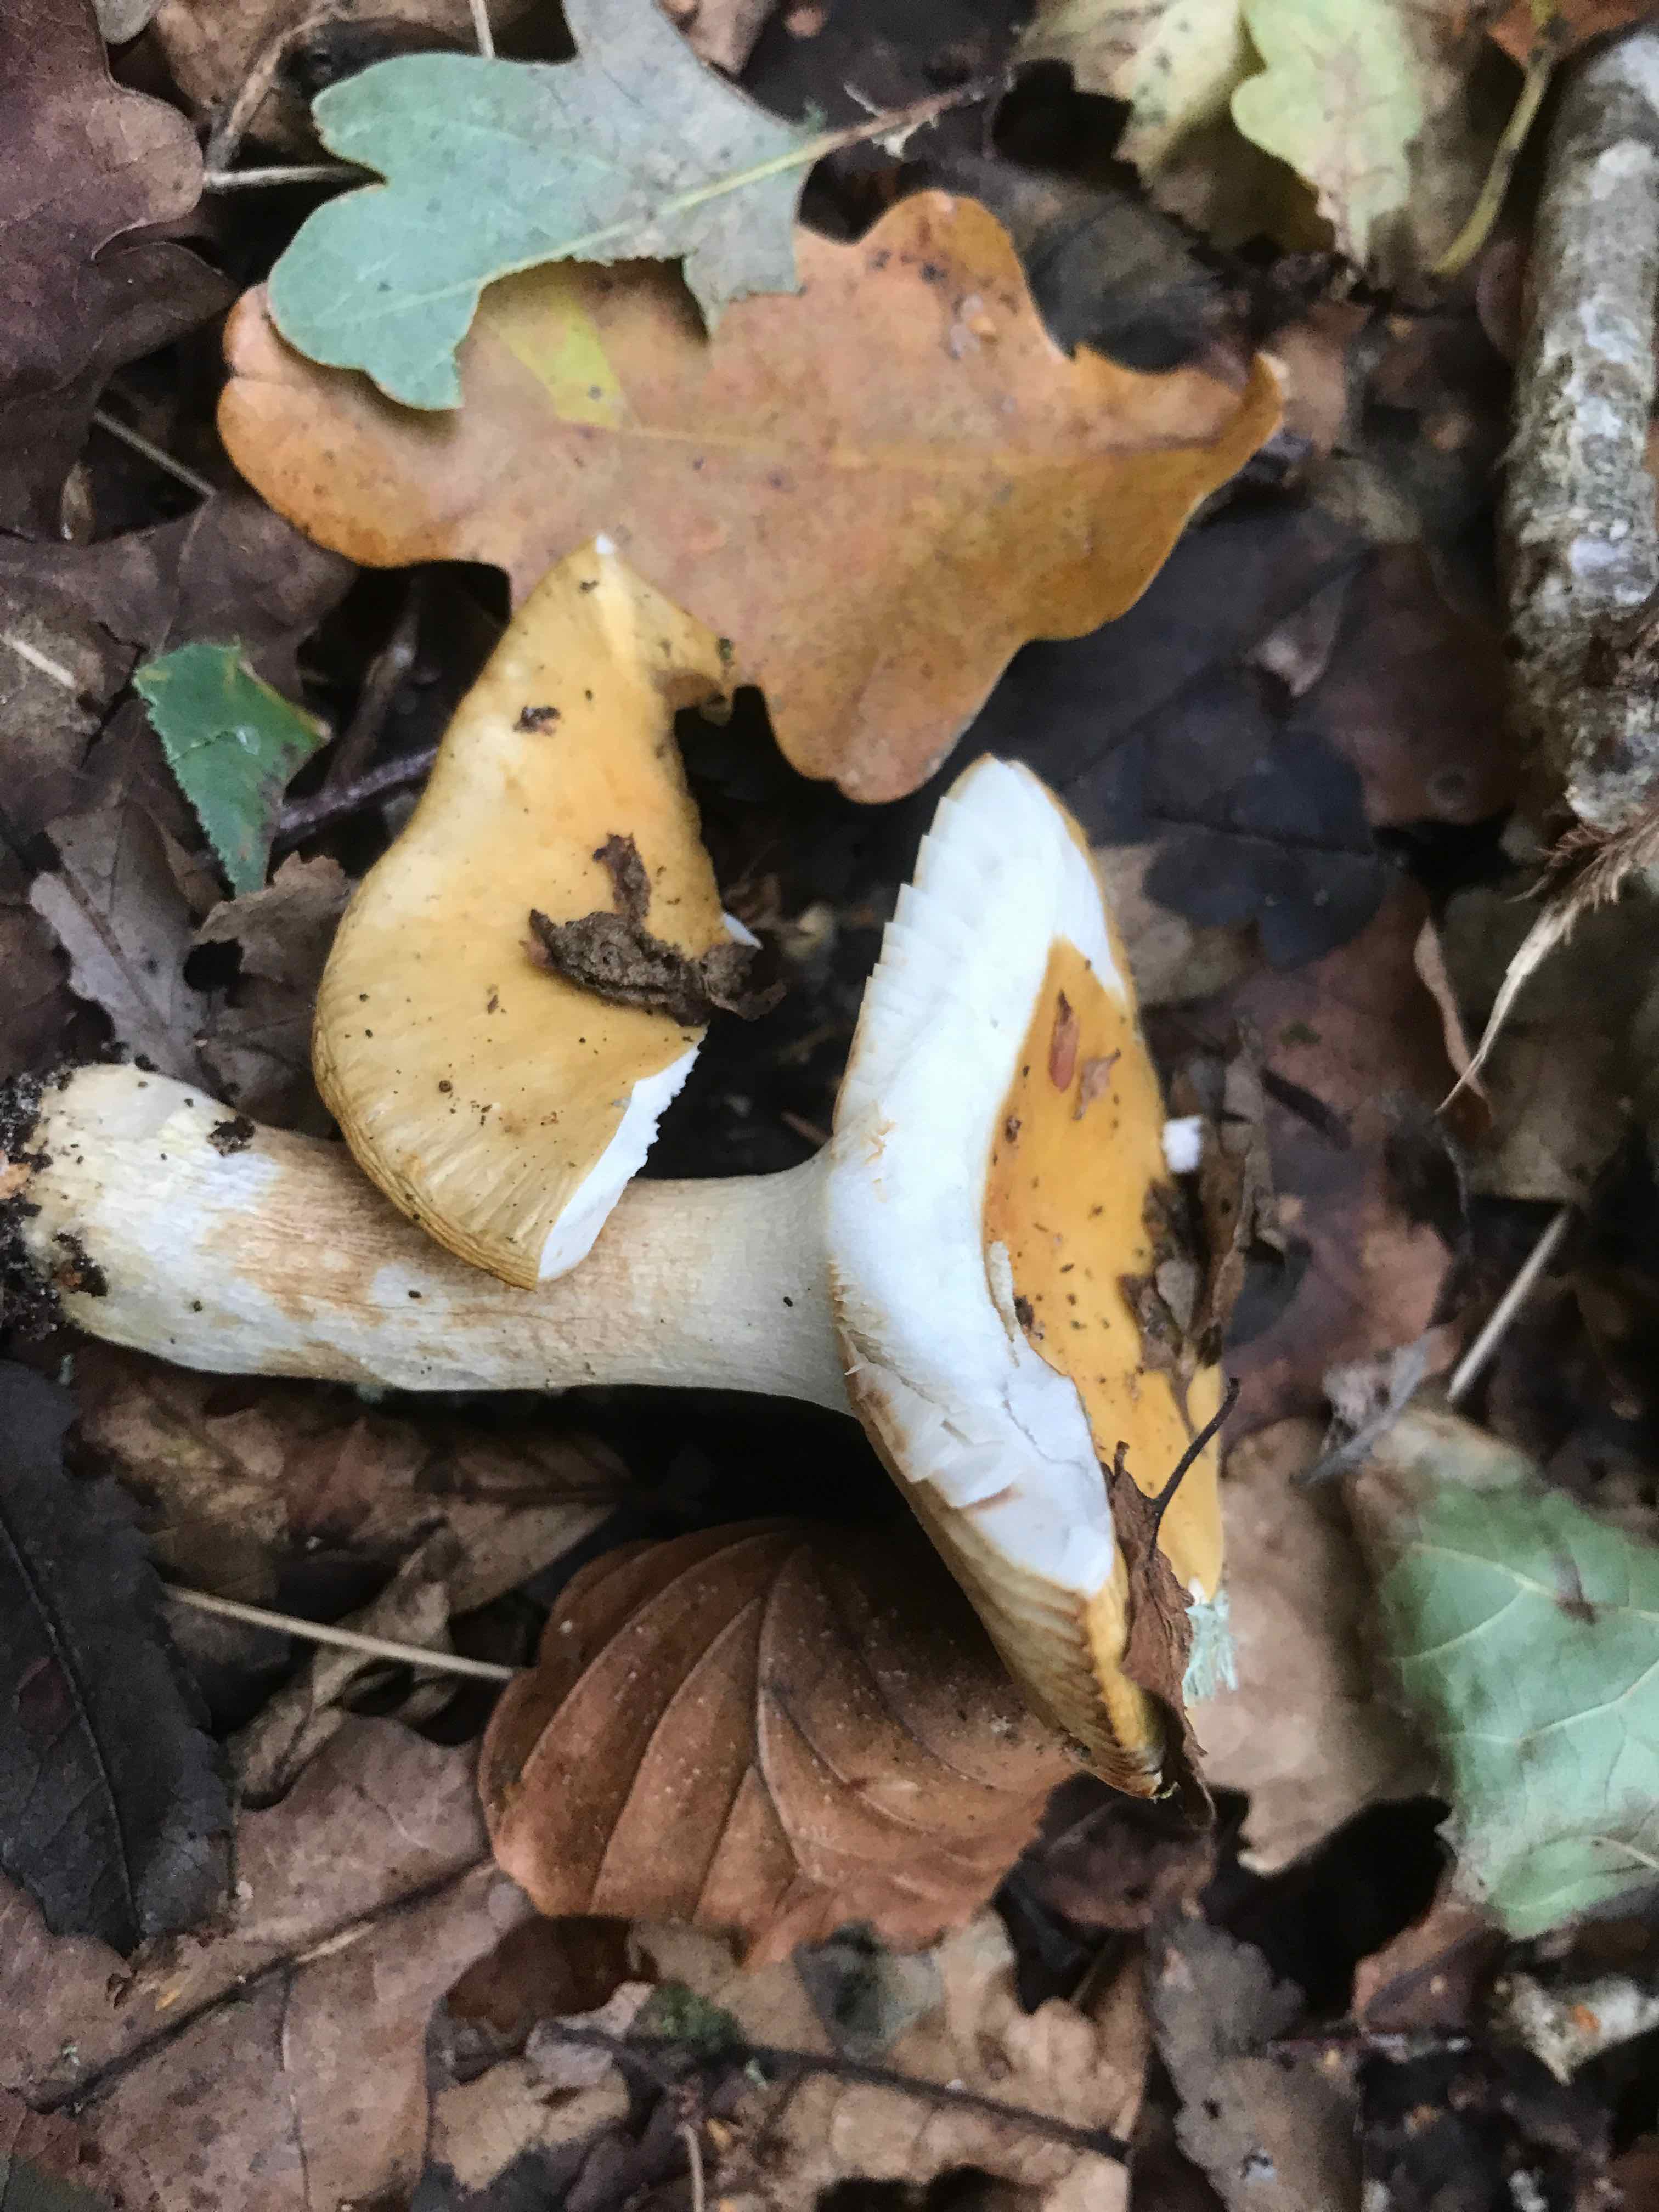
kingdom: Fungi
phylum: Basidiomycota
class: Agaricomycetes
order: Russulales
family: Russulaceae
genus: Russula
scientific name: Russula ochroleuca
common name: okkergul skørhat
